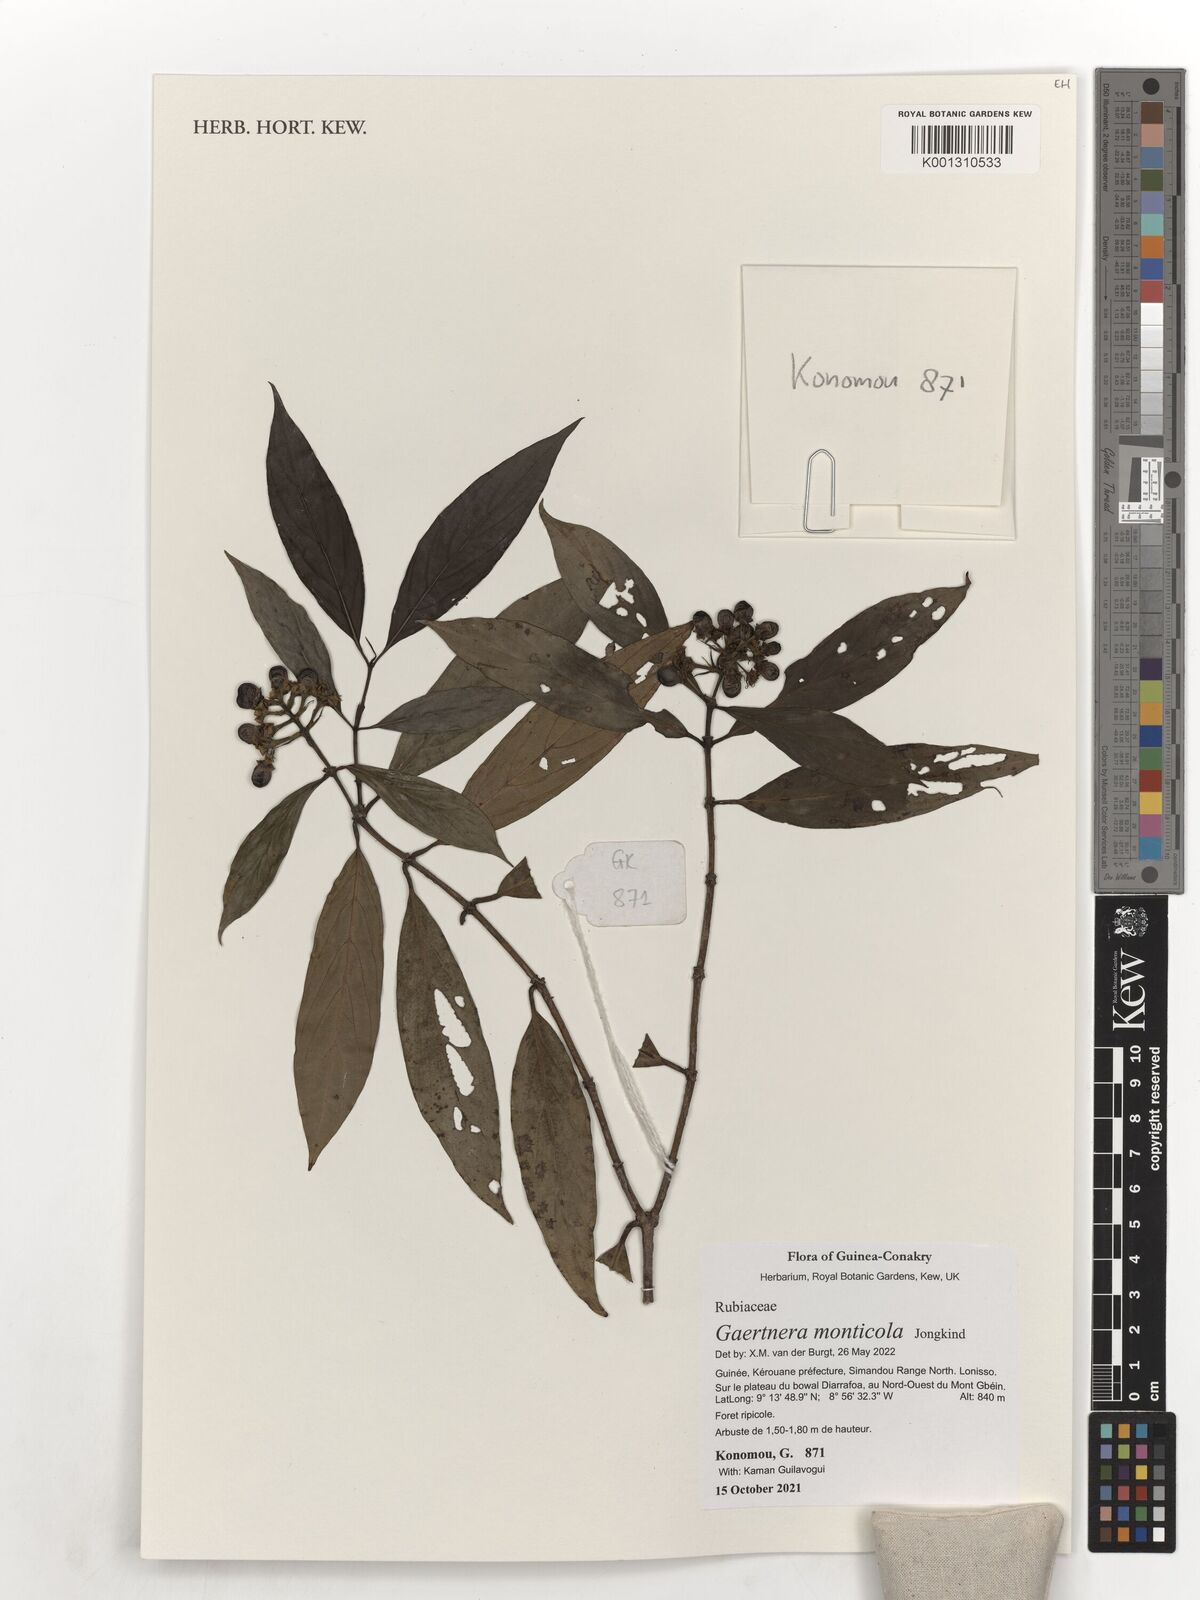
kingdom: Plantae
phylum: Tracheophyta
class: Magnoliopsida
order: Gentianales
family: Rubiaceae
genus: Gaertnera
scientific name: Gaertnera monticola
